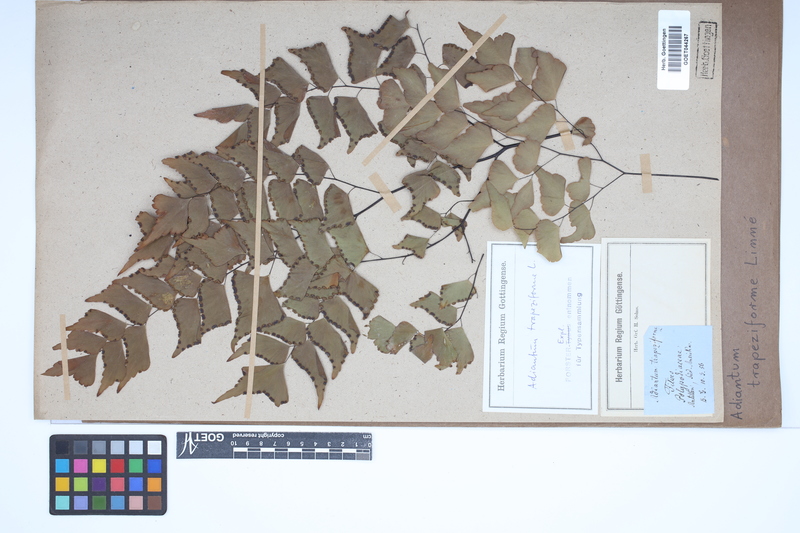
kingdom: Plantae
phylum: Tracheophyta
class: Polypodiopsida
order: Polypodiales
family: Pteridaceae
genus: Adiantum
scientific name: Adiantum trapeziforme
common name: Diamond maidenhair
